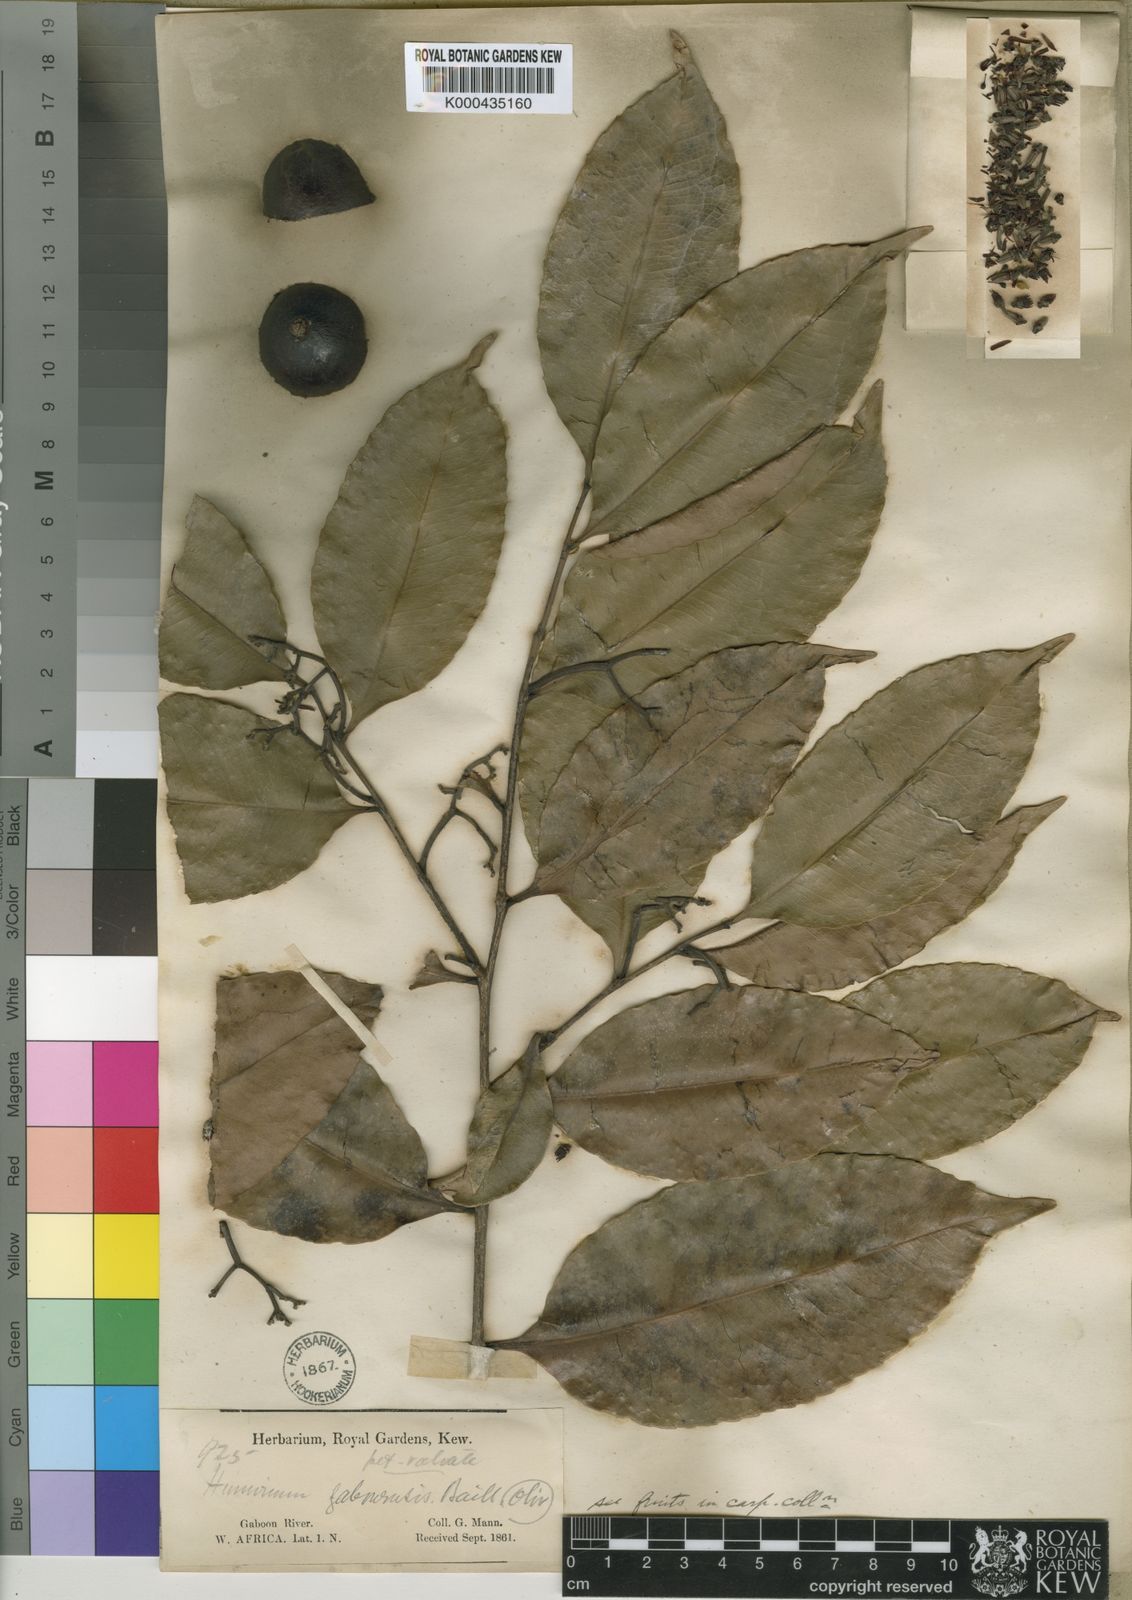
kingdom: Plantae
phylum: Tracheophyta
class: Magnoliopsida
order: Malpighiales
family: Humiriaceae
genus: Sacoglottis
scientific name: Sacoglottis gabonensis
